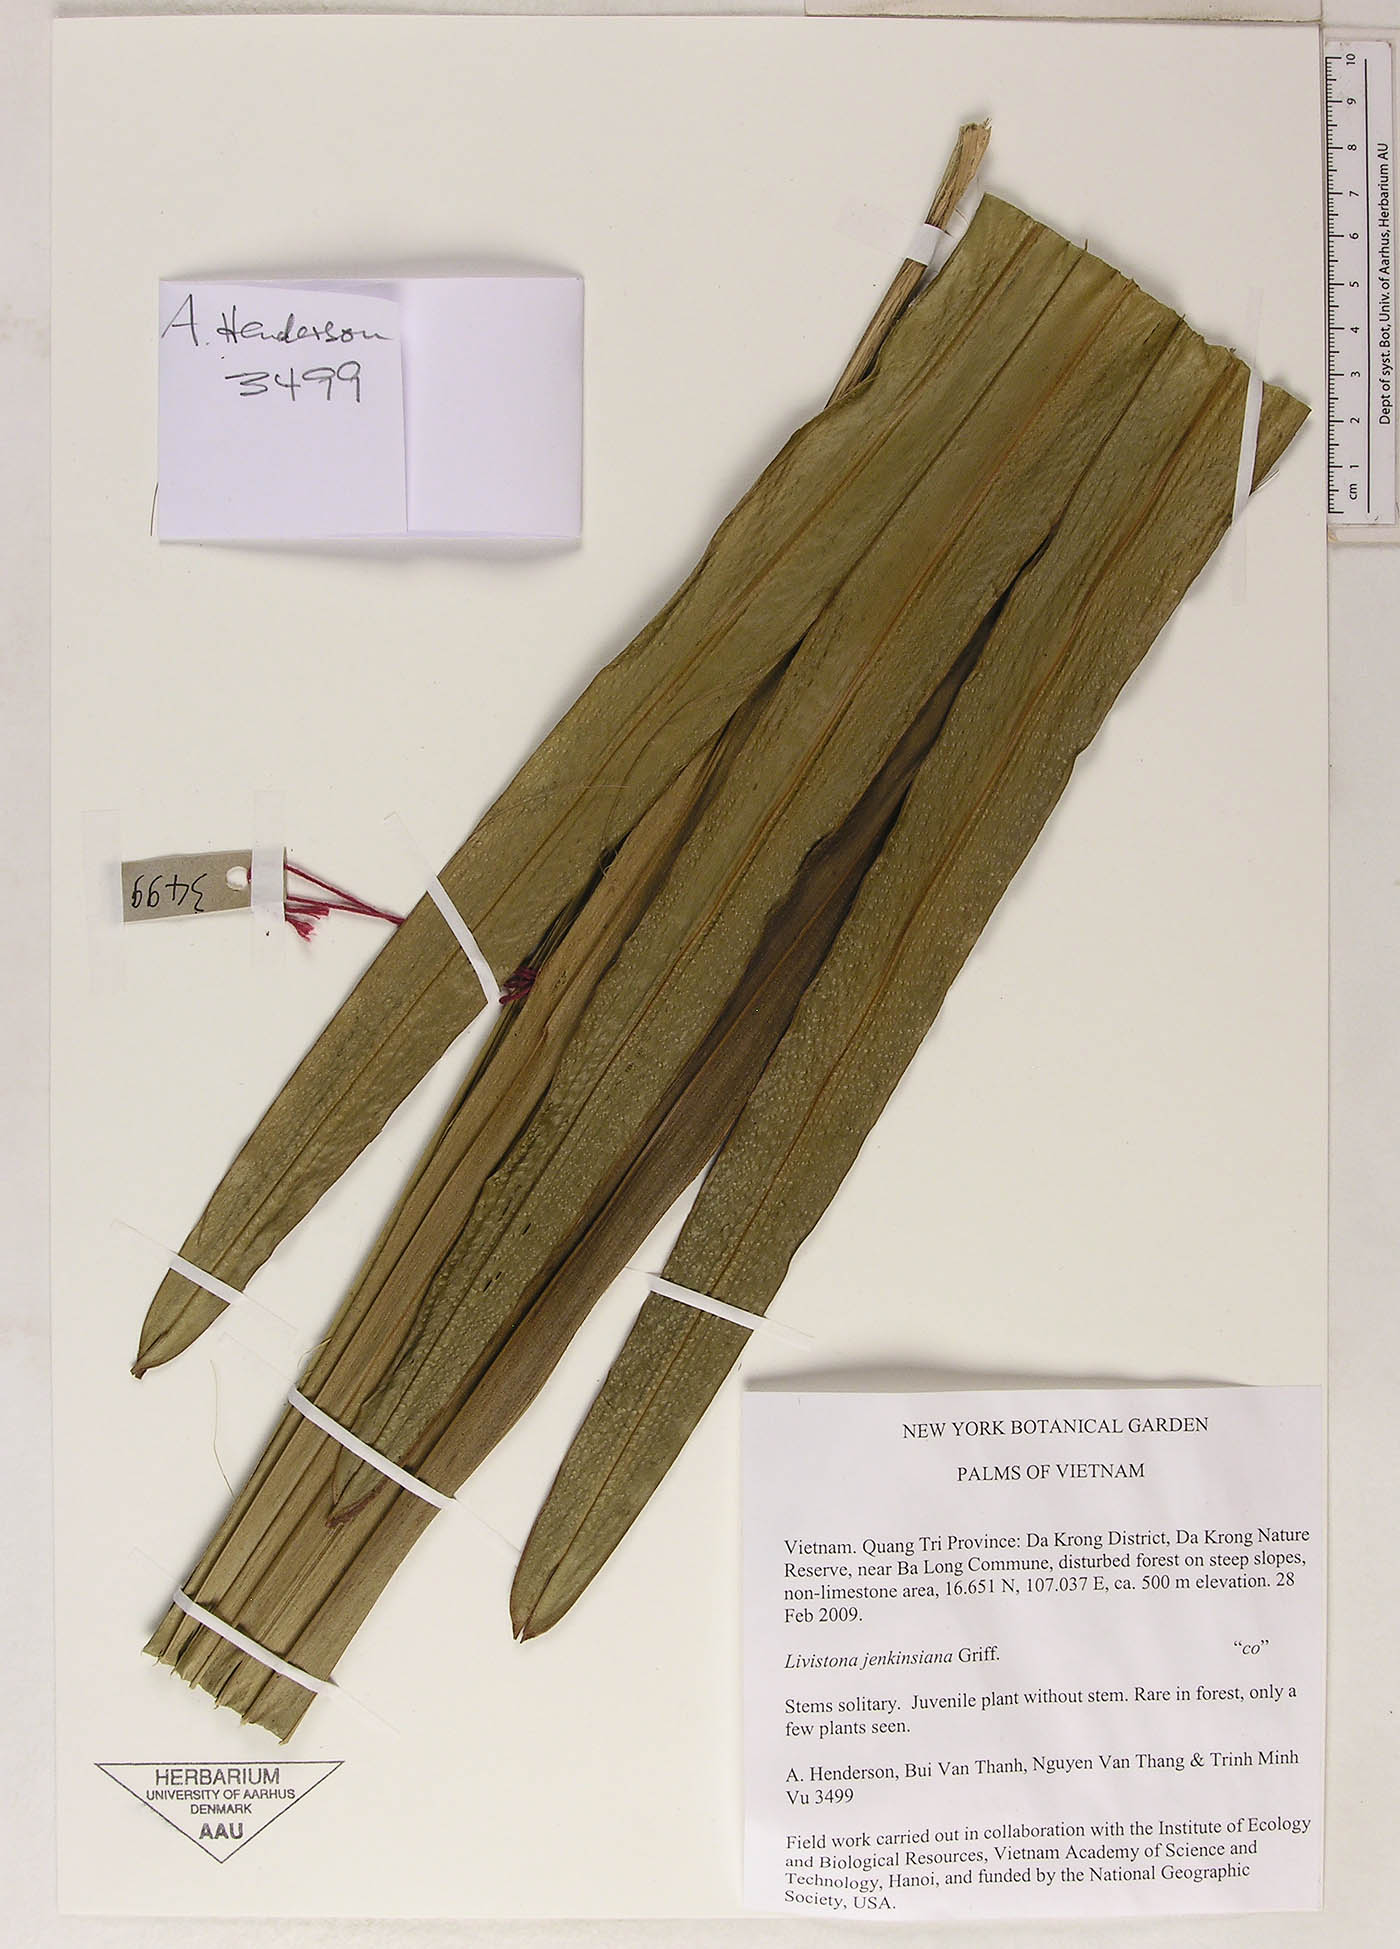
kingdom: Plantae
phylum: Tracheophyta
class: Liliopsida
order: Arecales
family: Arecaceae
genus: Livistona
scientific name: Livistona jenkinsiana
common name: Himalayan fan palm
